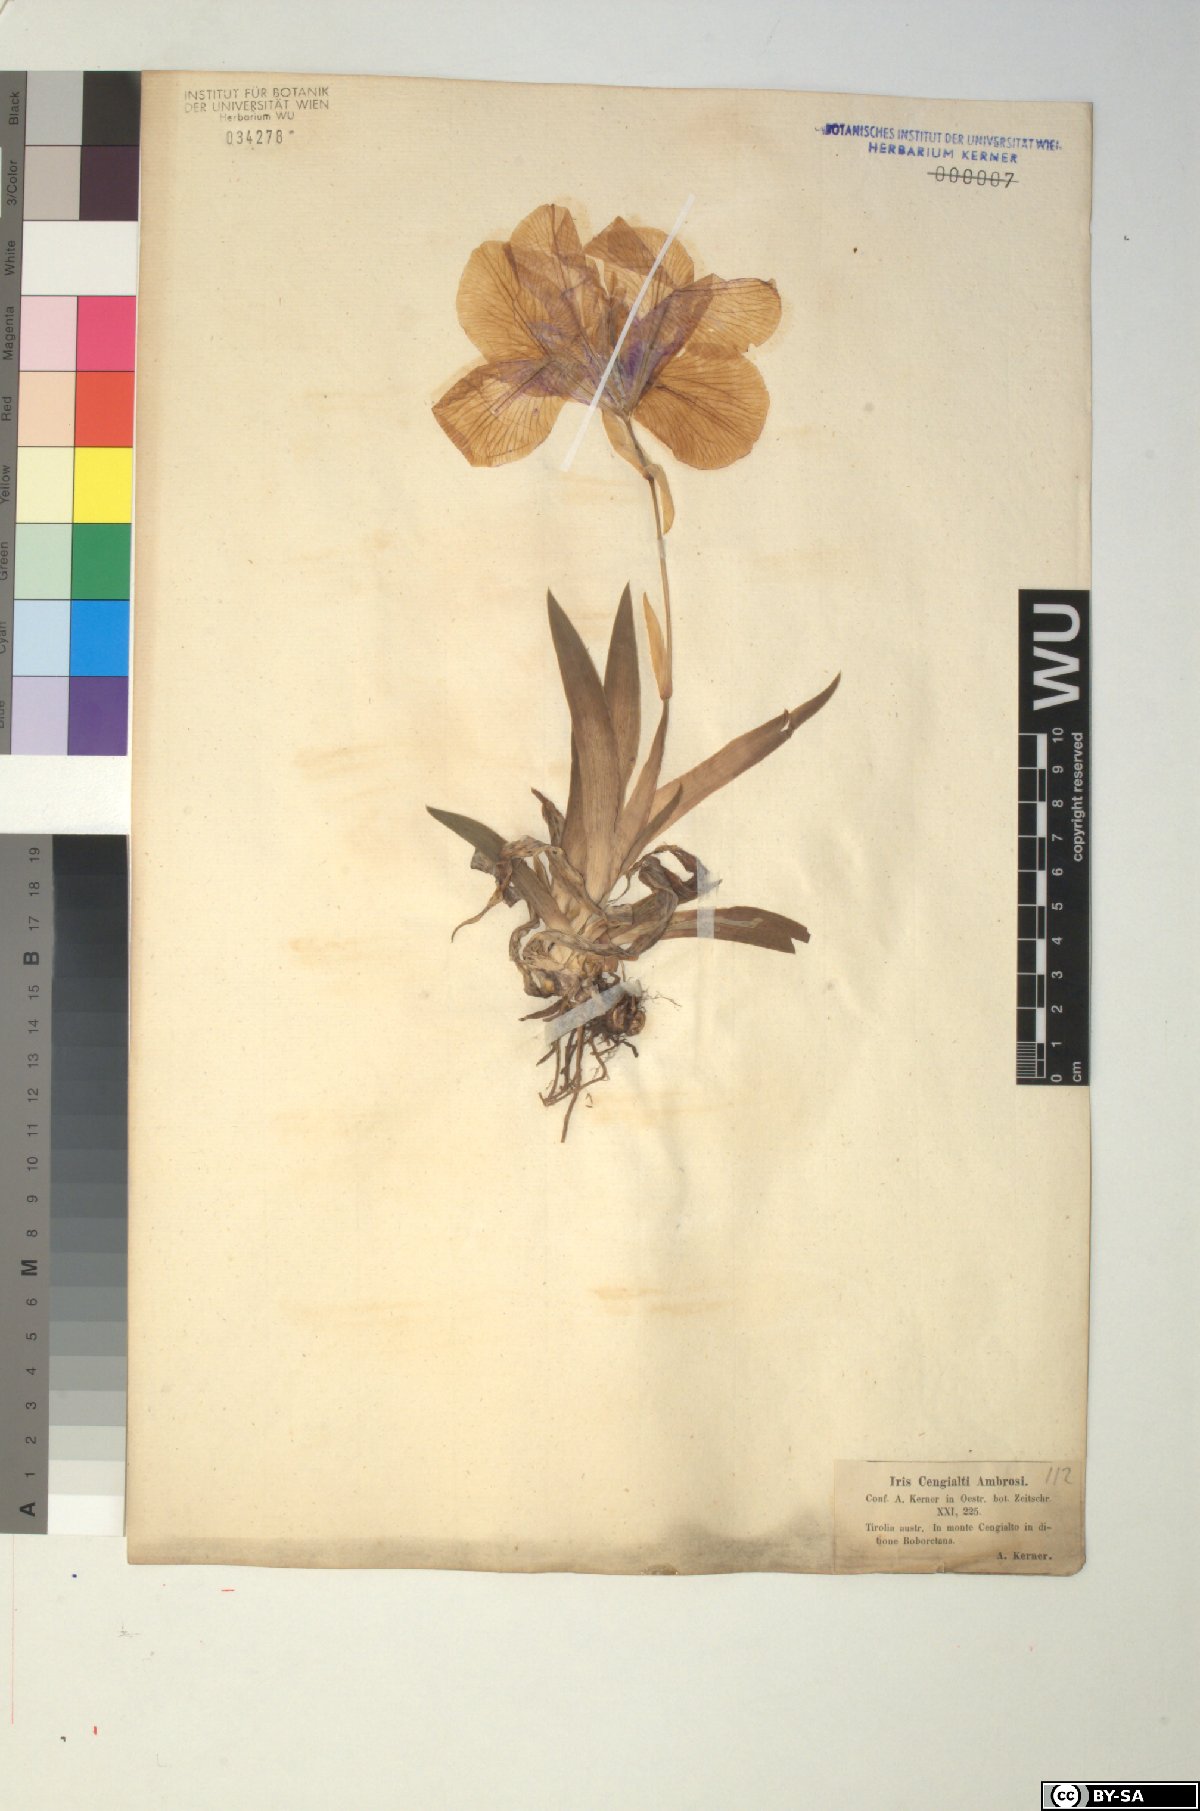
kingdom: Plantae
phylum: Tracheophyta
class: Liliopsida
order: Asparagales
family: Iridaceae
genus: Iris
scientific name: Iris pallida
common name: Sweet iris
